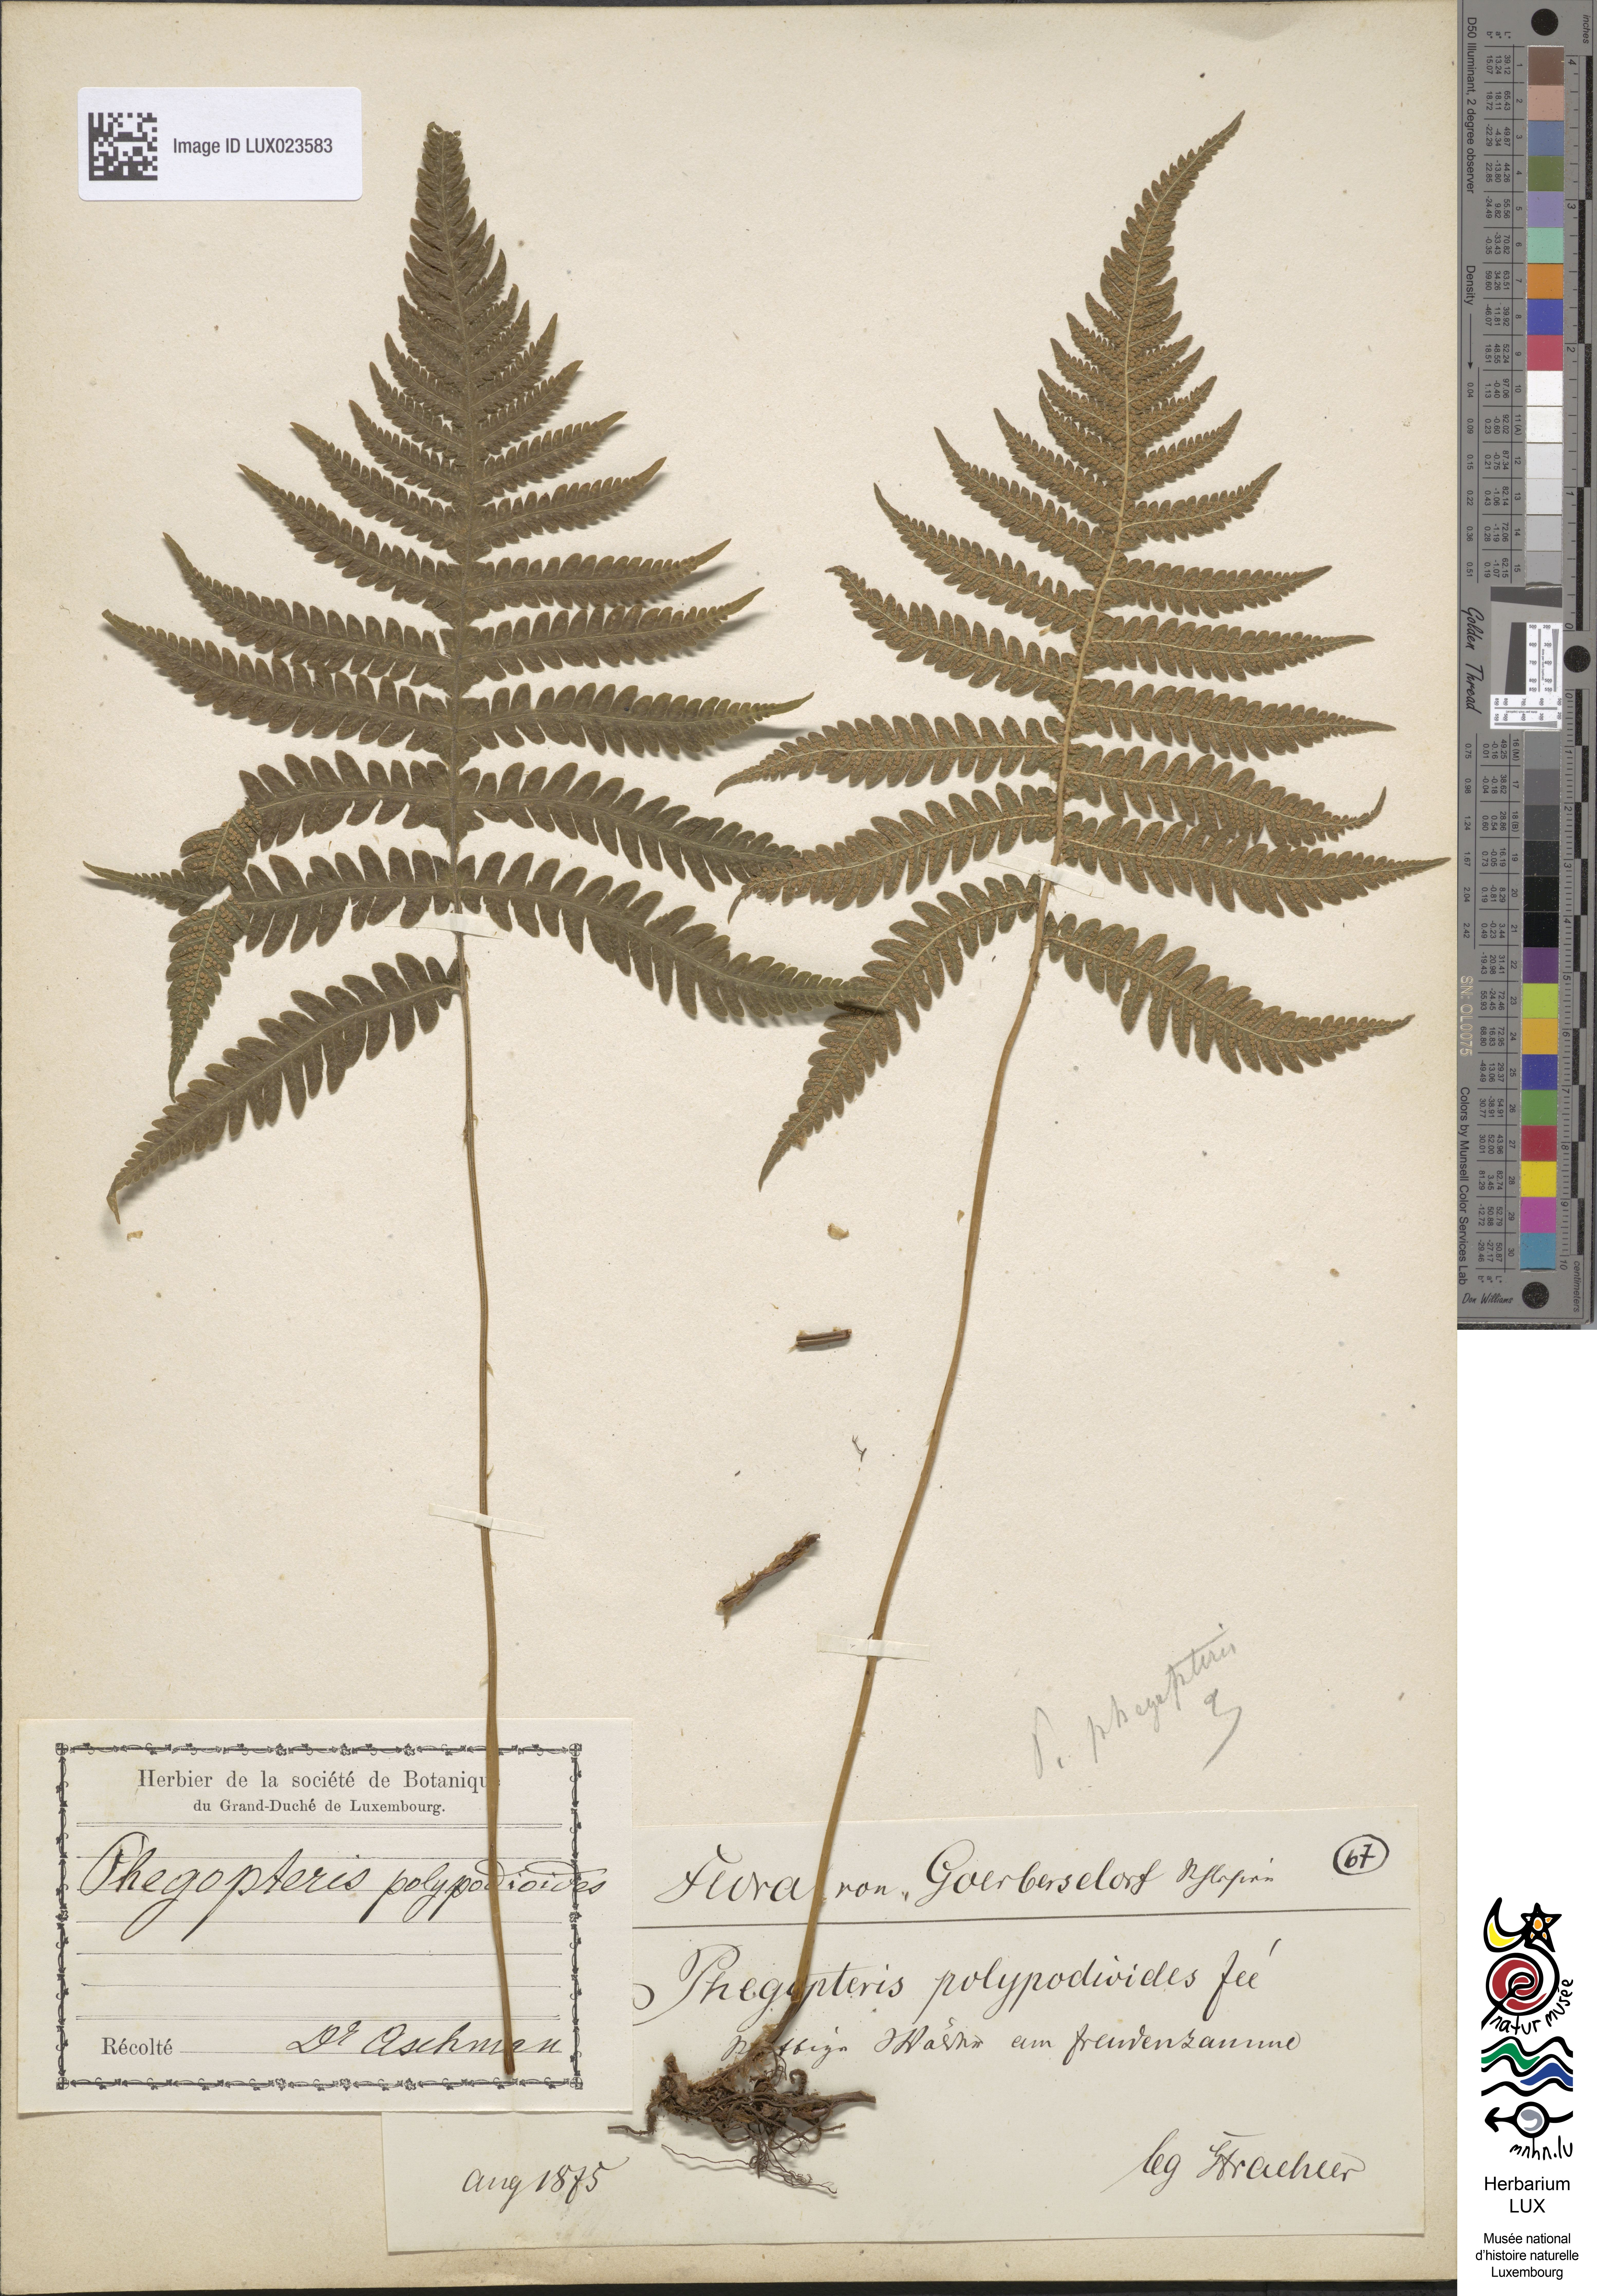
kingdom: Plantae
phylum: Tracheophyta
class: Polypodiopsida
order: Polypodiales
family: Thelypteridaceae
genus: Phegopteris
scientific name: Phegopteris connectilis
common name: Beech fern
